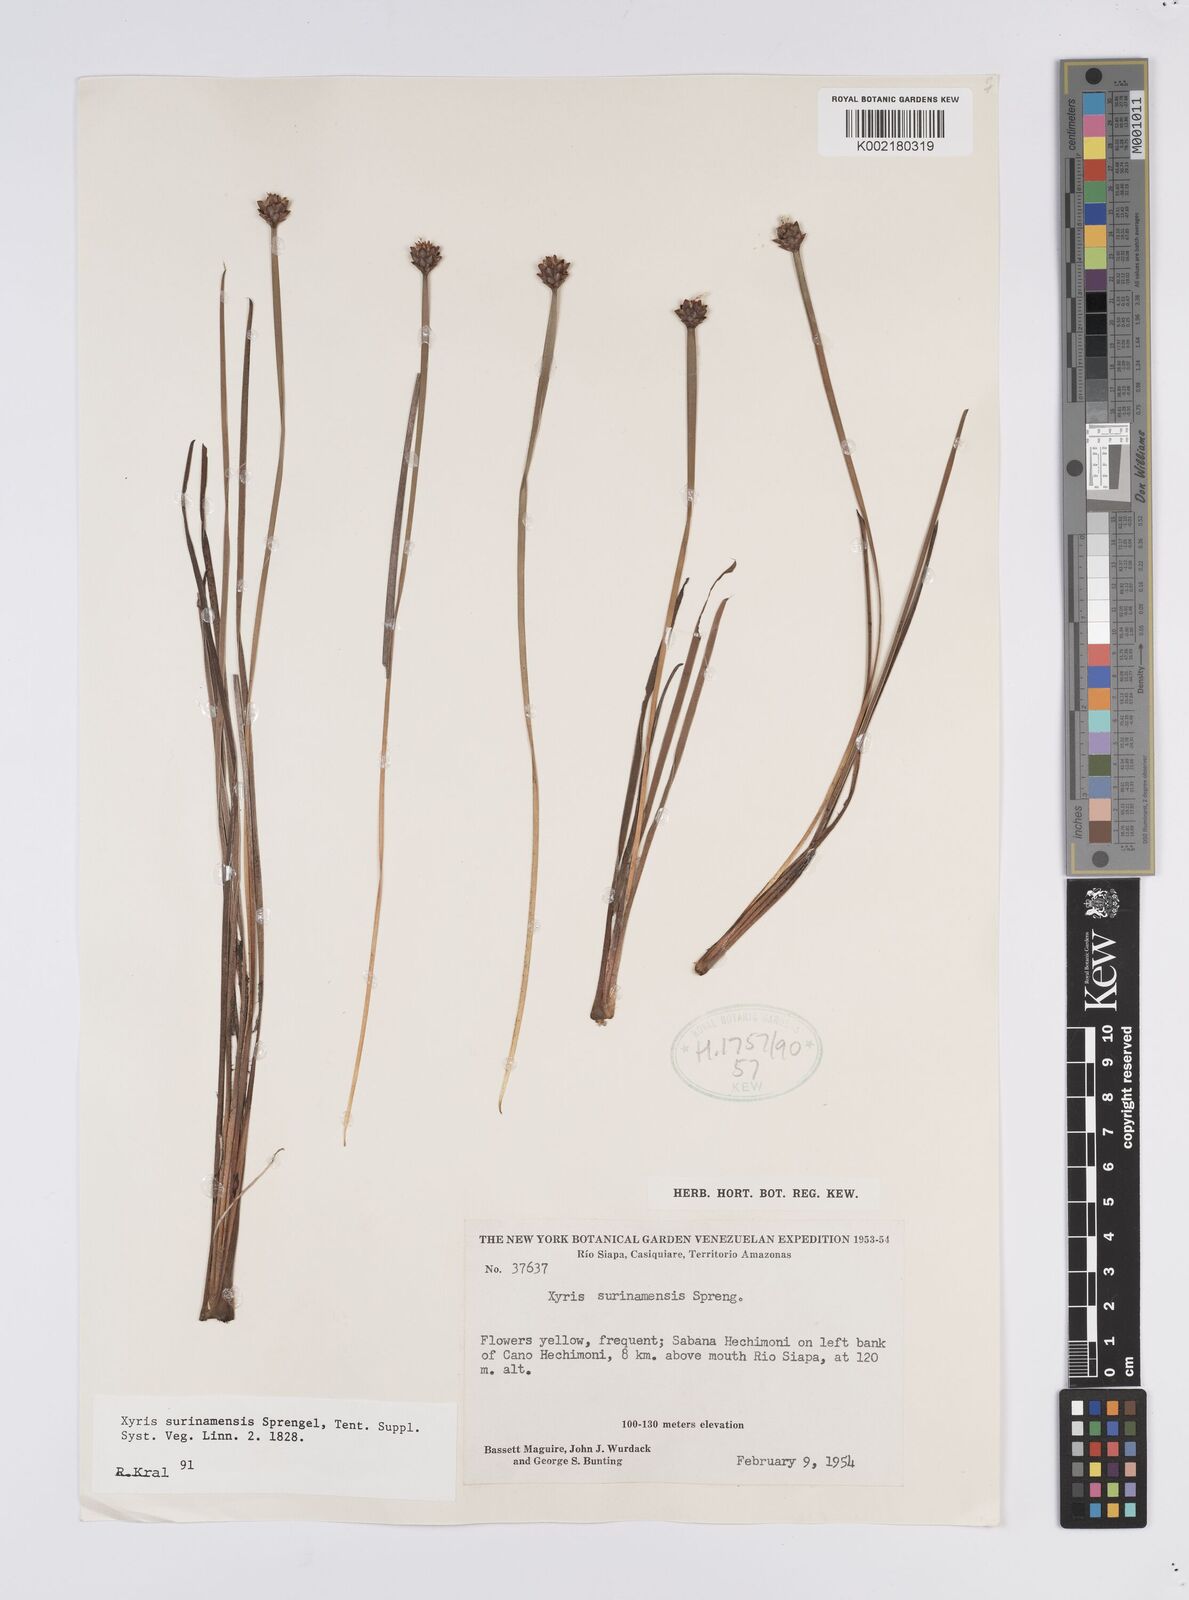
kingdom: Plantae
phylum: Tracheophyta
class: Liliopsida
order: Poales
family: Xyridaceae
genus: Xyris
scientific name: Xyris surinamensis
